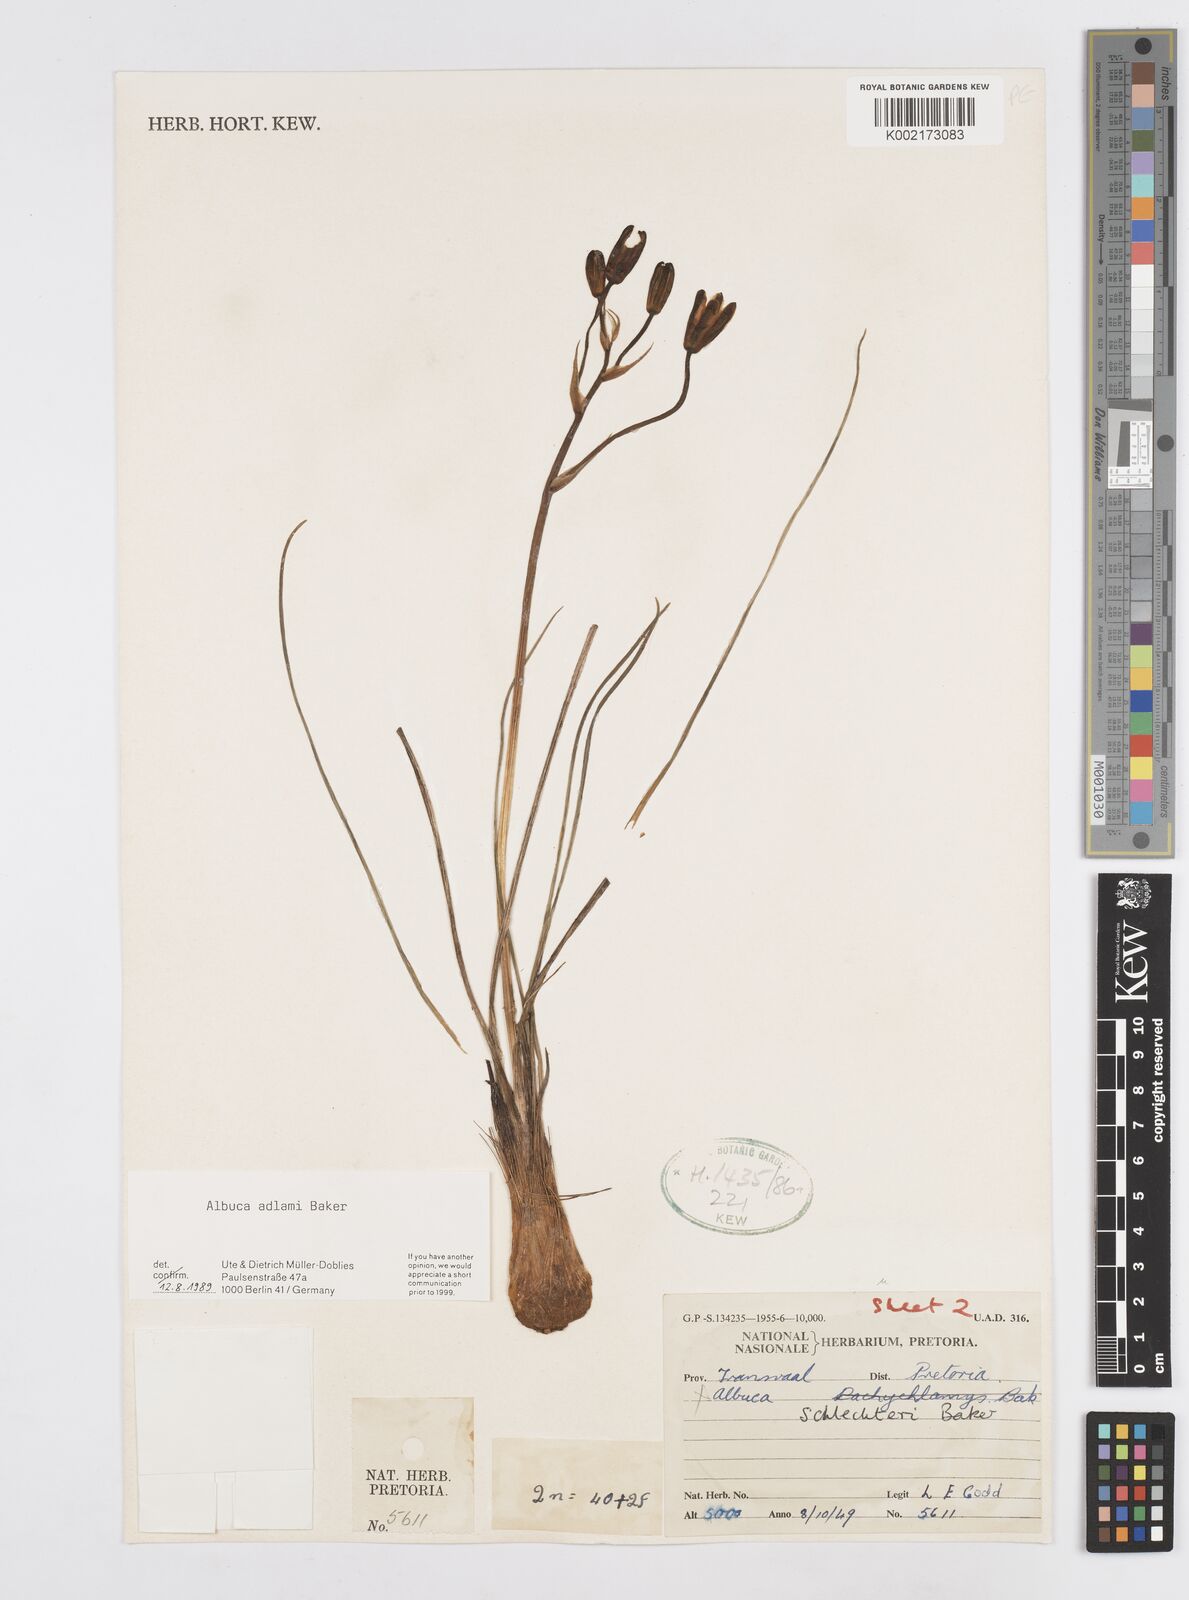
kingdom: Plantae
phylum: Tracheophyta
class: Liliopsida
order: Asparagales
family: Asparagaceae
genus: Albuca
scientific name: Albuca adlami
